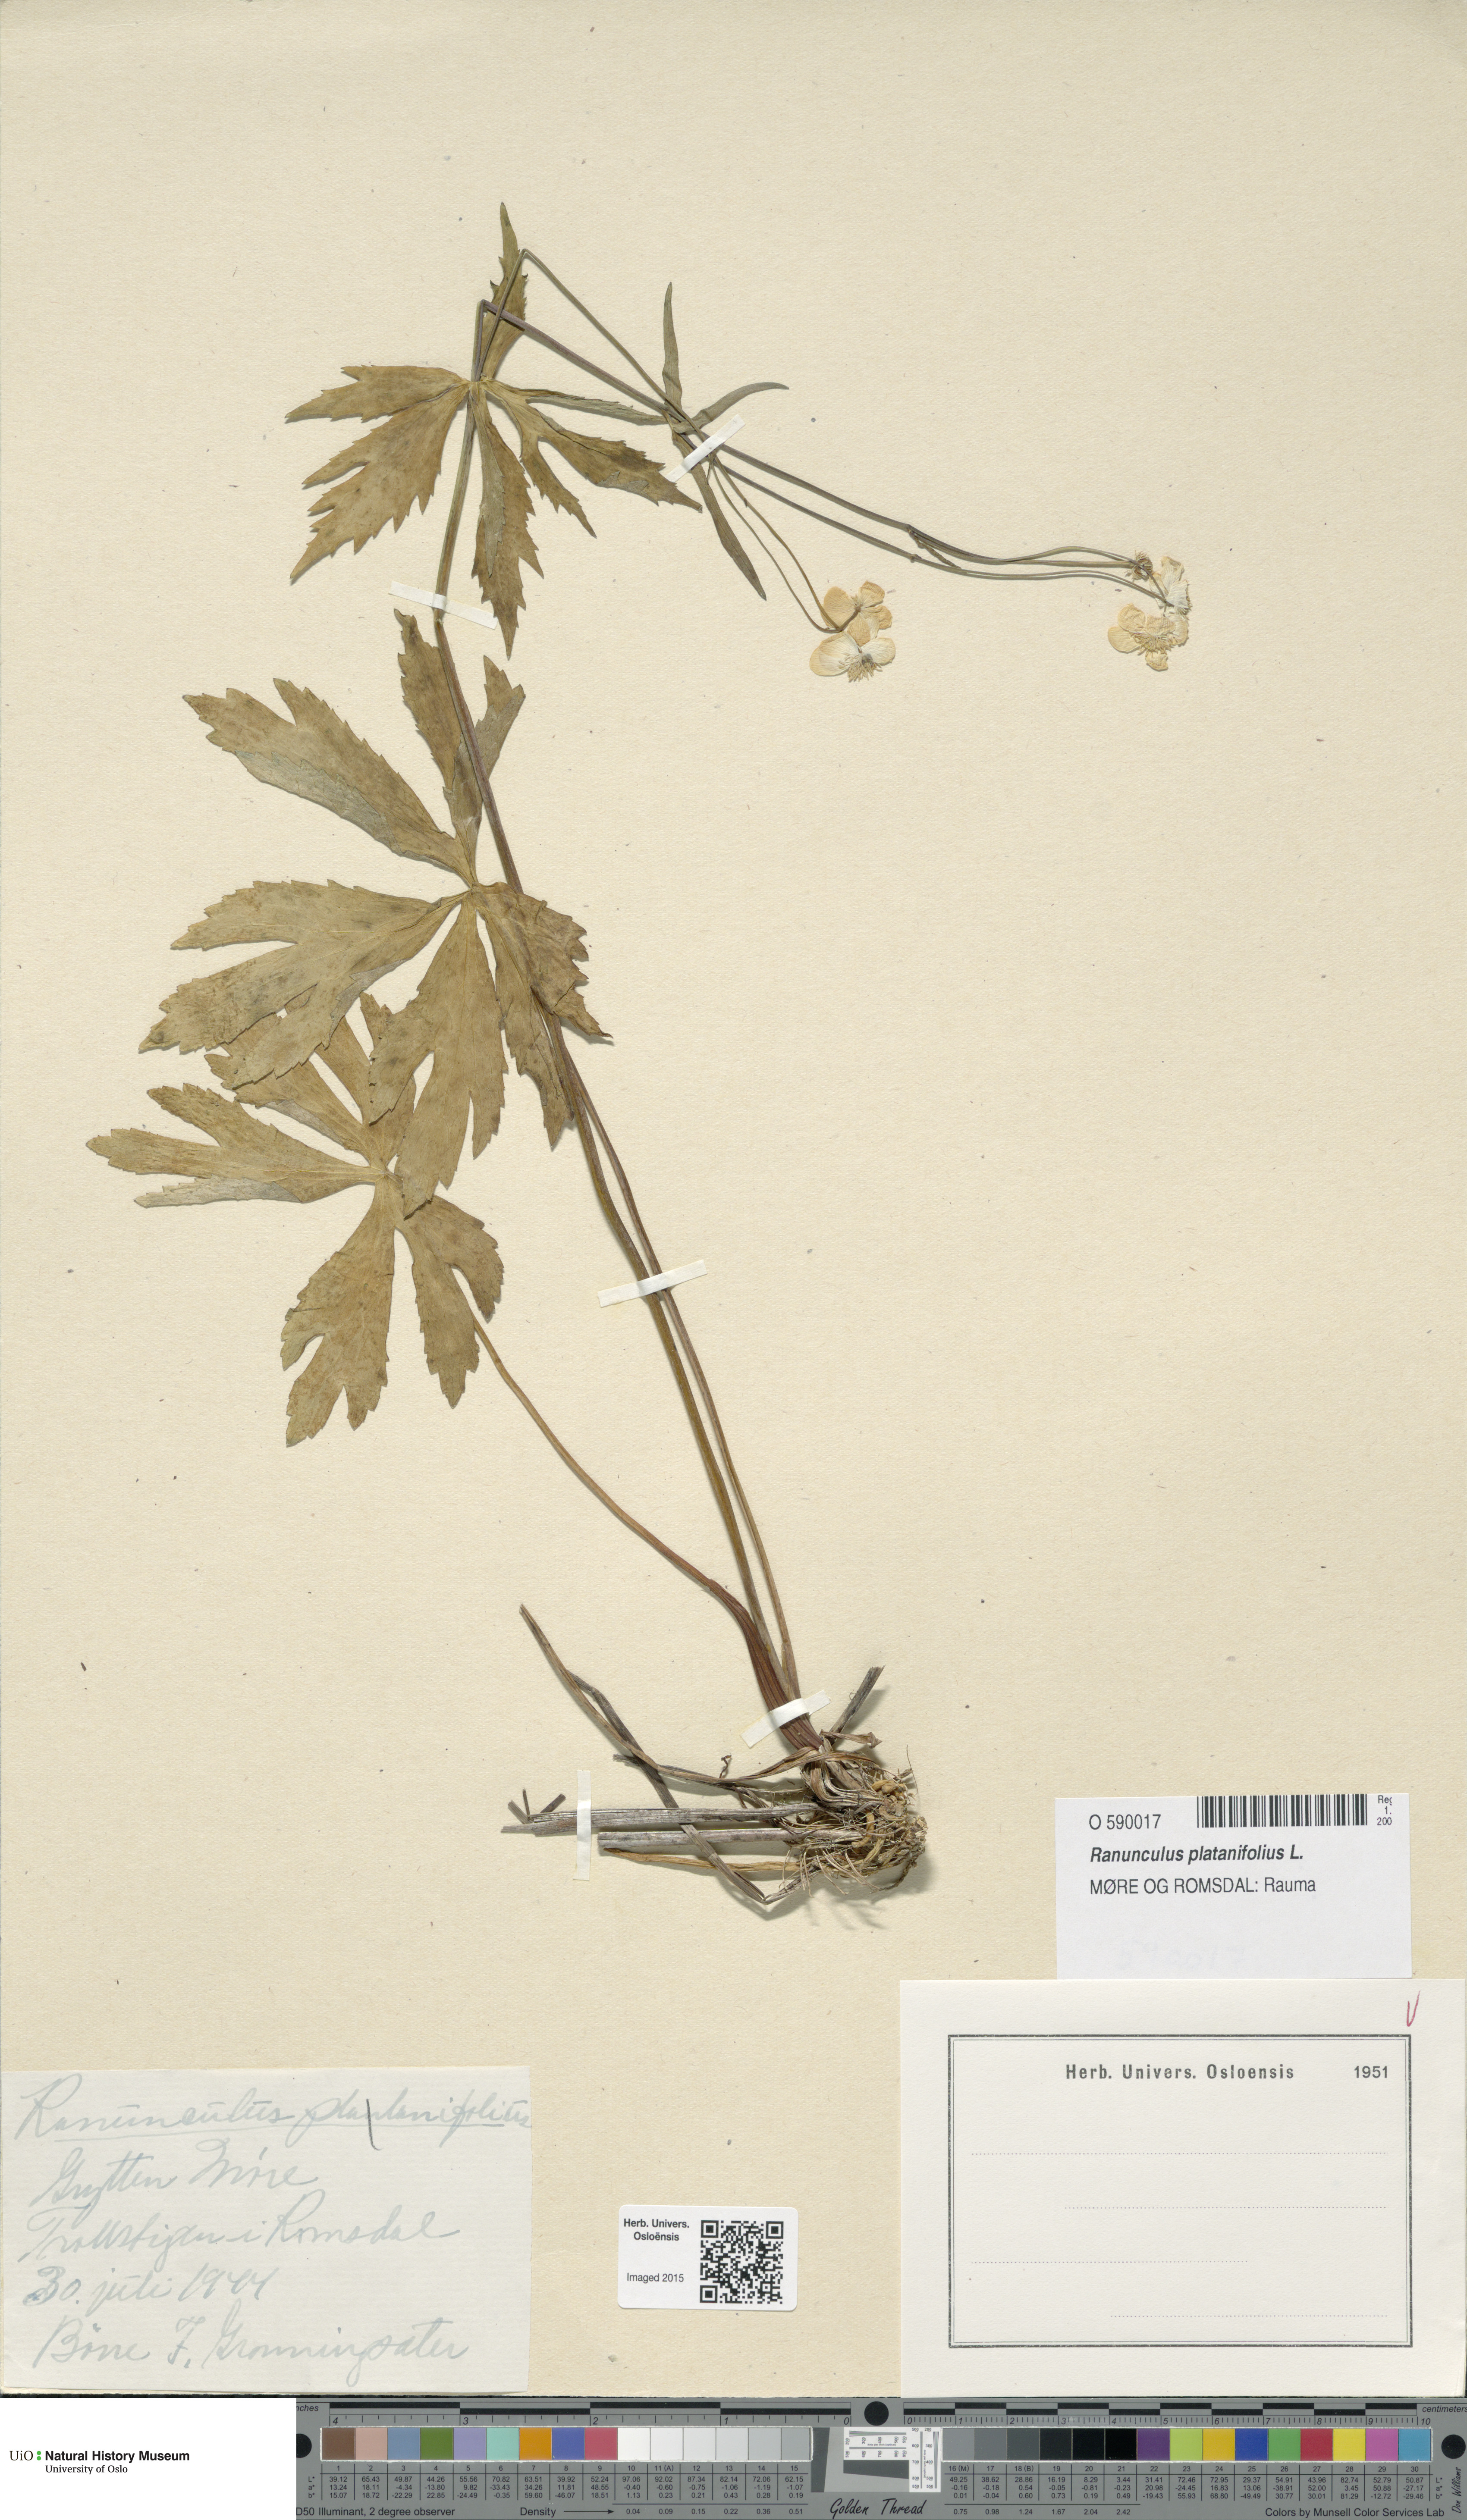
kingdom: Plantae
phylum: Tracheophyta
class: Magnoliopsida
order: Ranunculales
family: Ranunculaceae
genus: Ranunculus
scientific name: Ranunculus platanifolius
